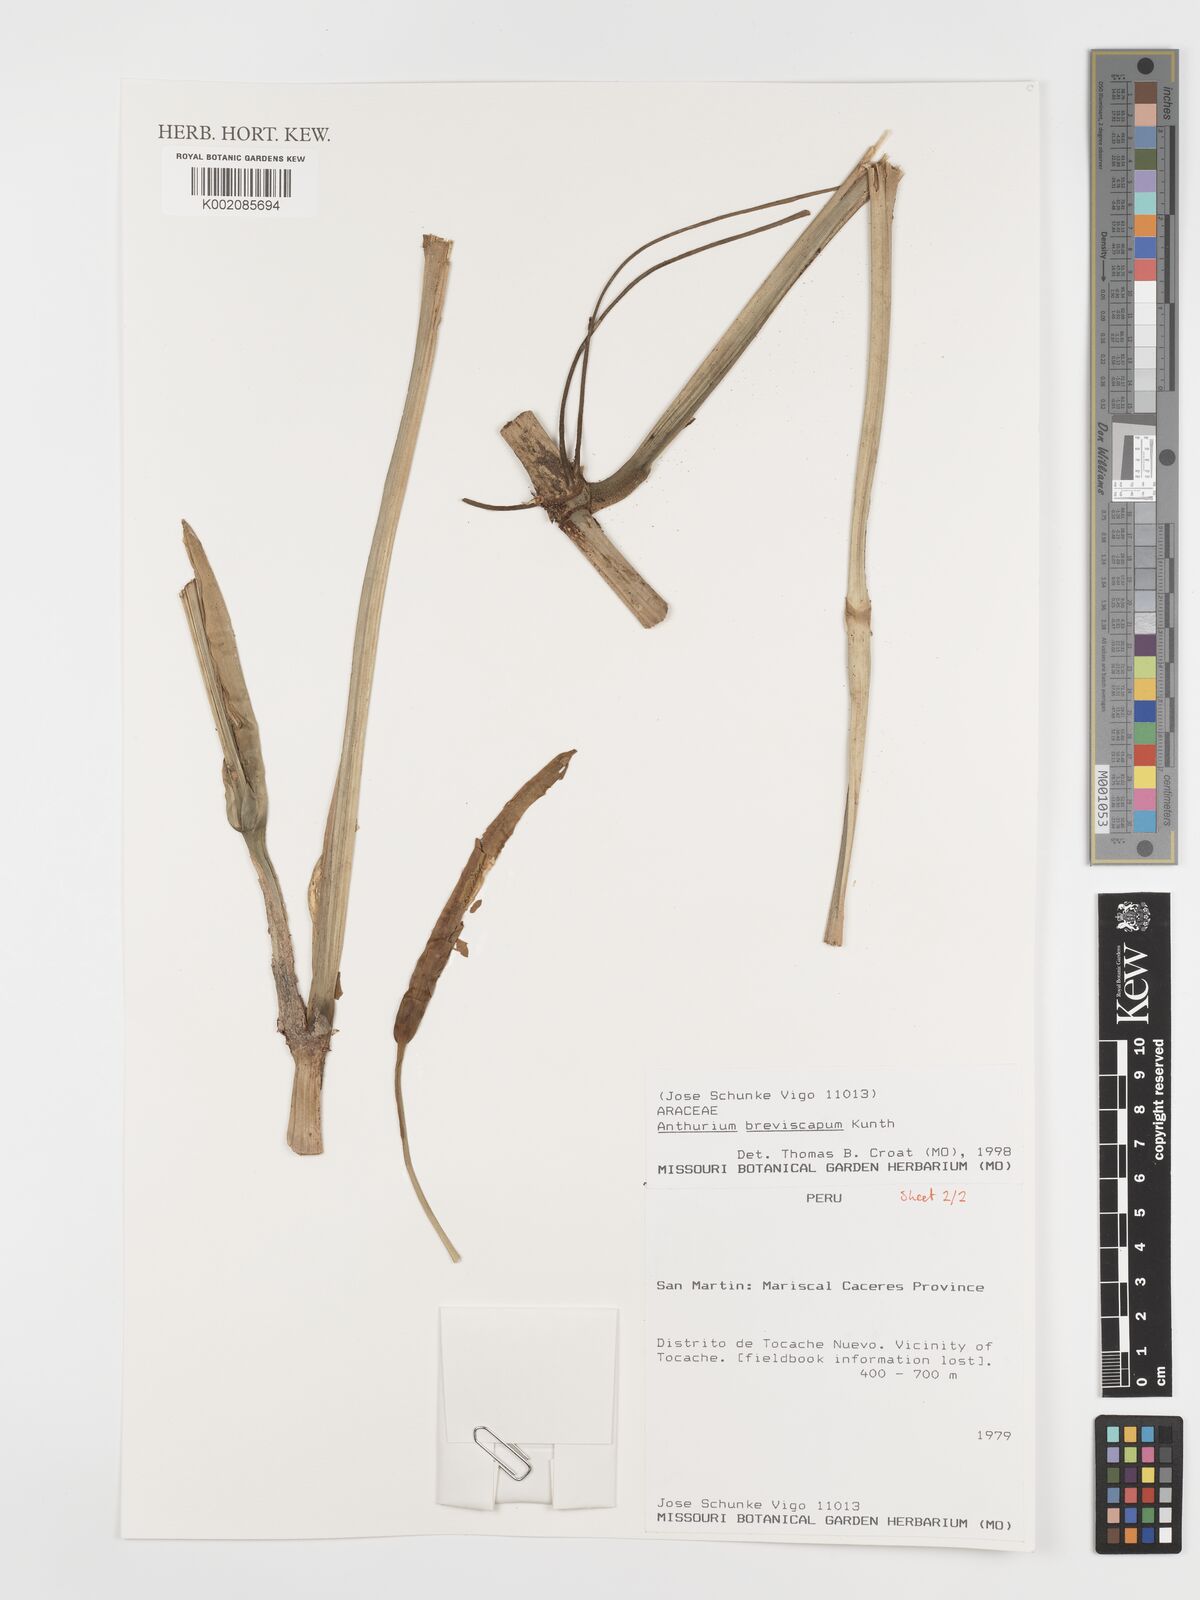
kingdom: Plantae
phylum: Tracheophyta
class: Liliopsida
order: Alismatales
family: Araceae
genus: Anthurium
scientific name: Anthurium breviscapum
